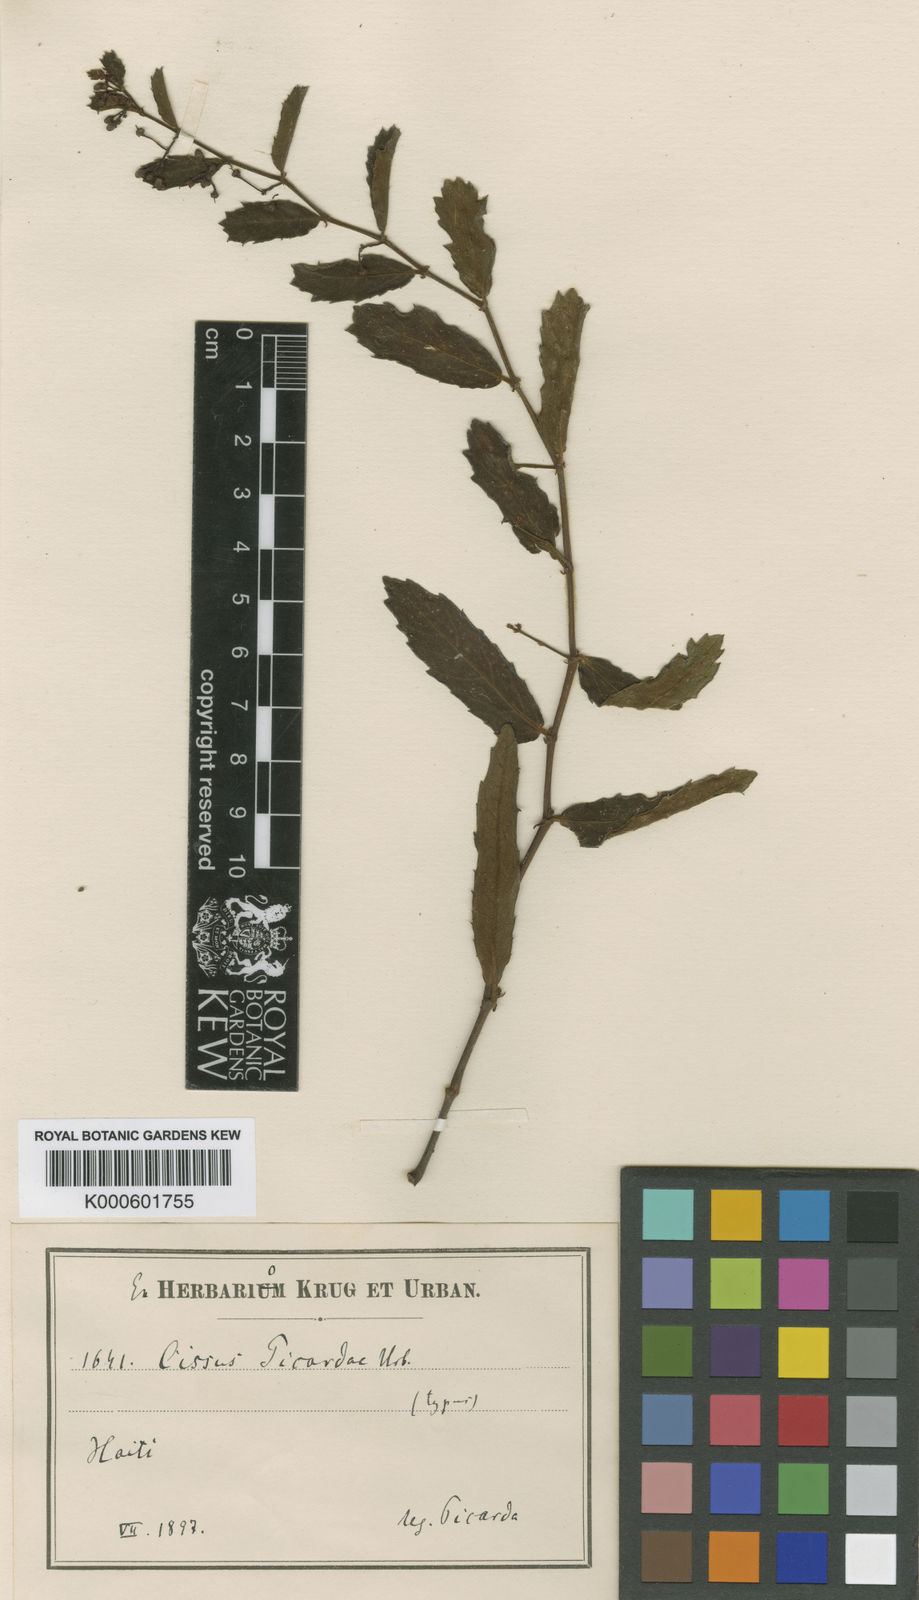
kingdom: Plantae
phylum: Tracheophyta
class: Magnoliopsida
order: Vitales
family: Vitaceae
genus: Cissus
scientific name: Cissus picardae
